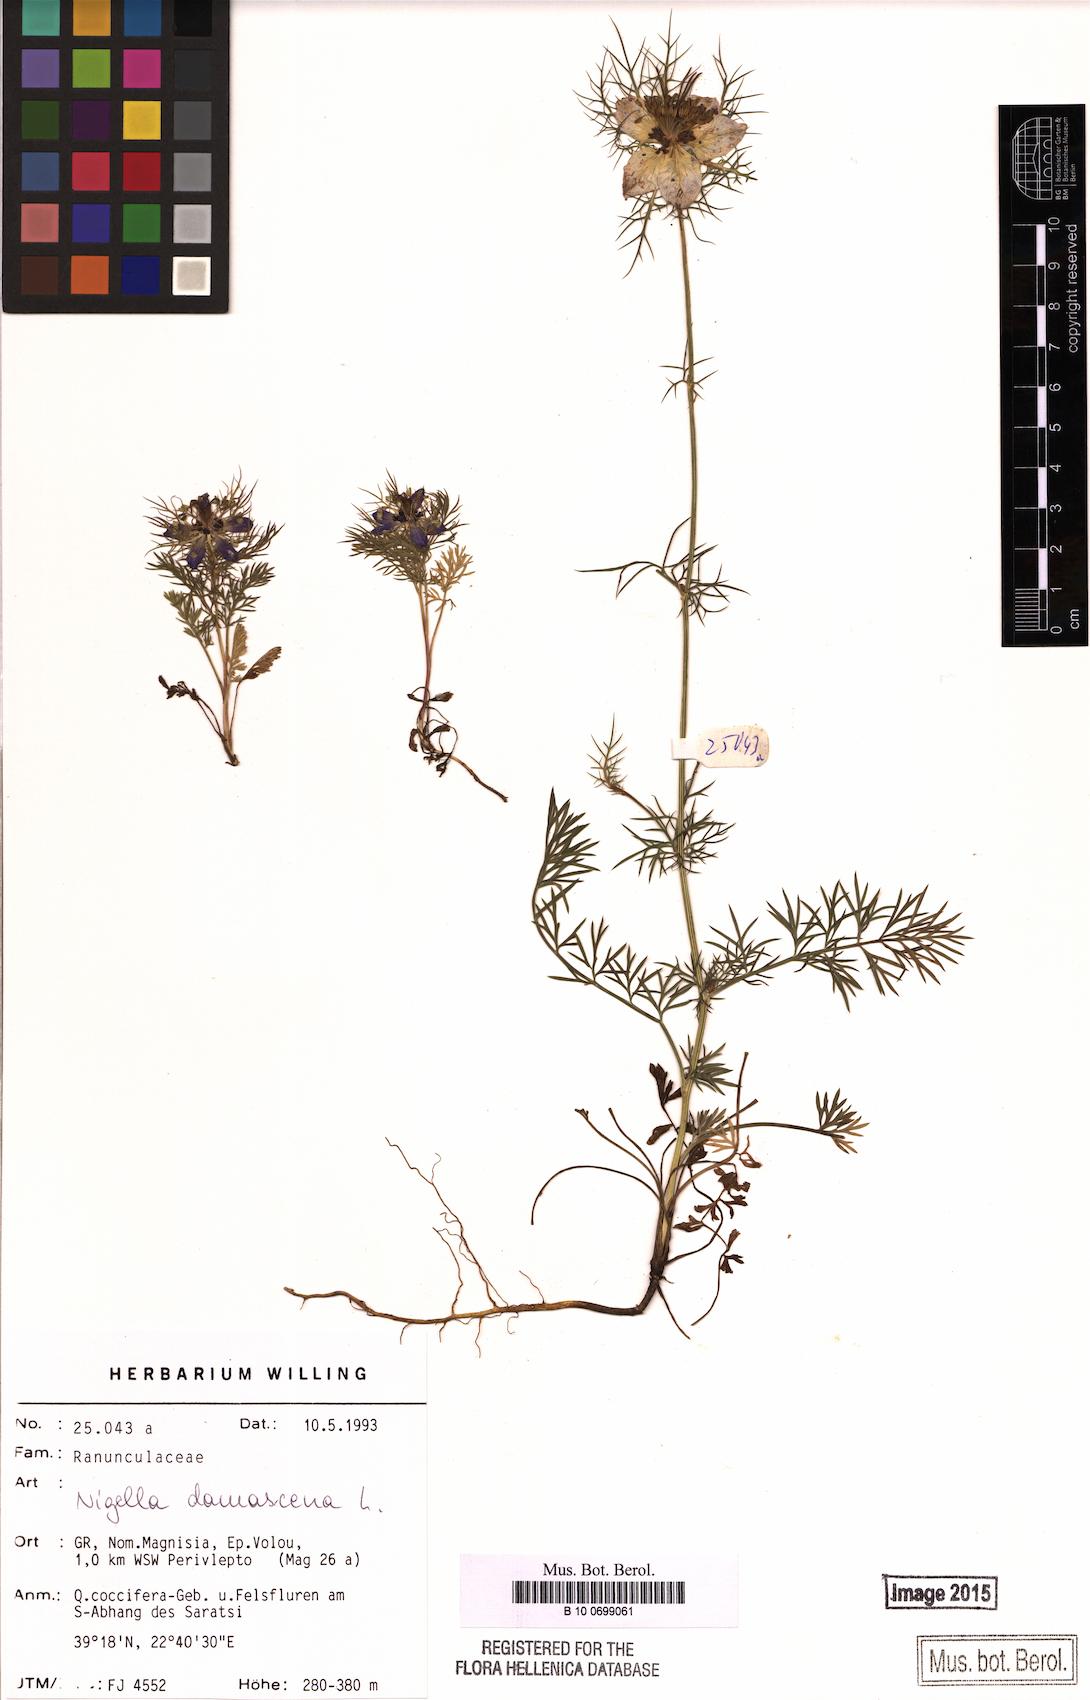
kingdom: Plantae
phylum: Tracheophyta
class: Magnoliopsida
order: Ranunculales
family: Ranunculaceae
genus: Nigella
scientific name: Nigella damascena
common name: Love-in-a-mist
